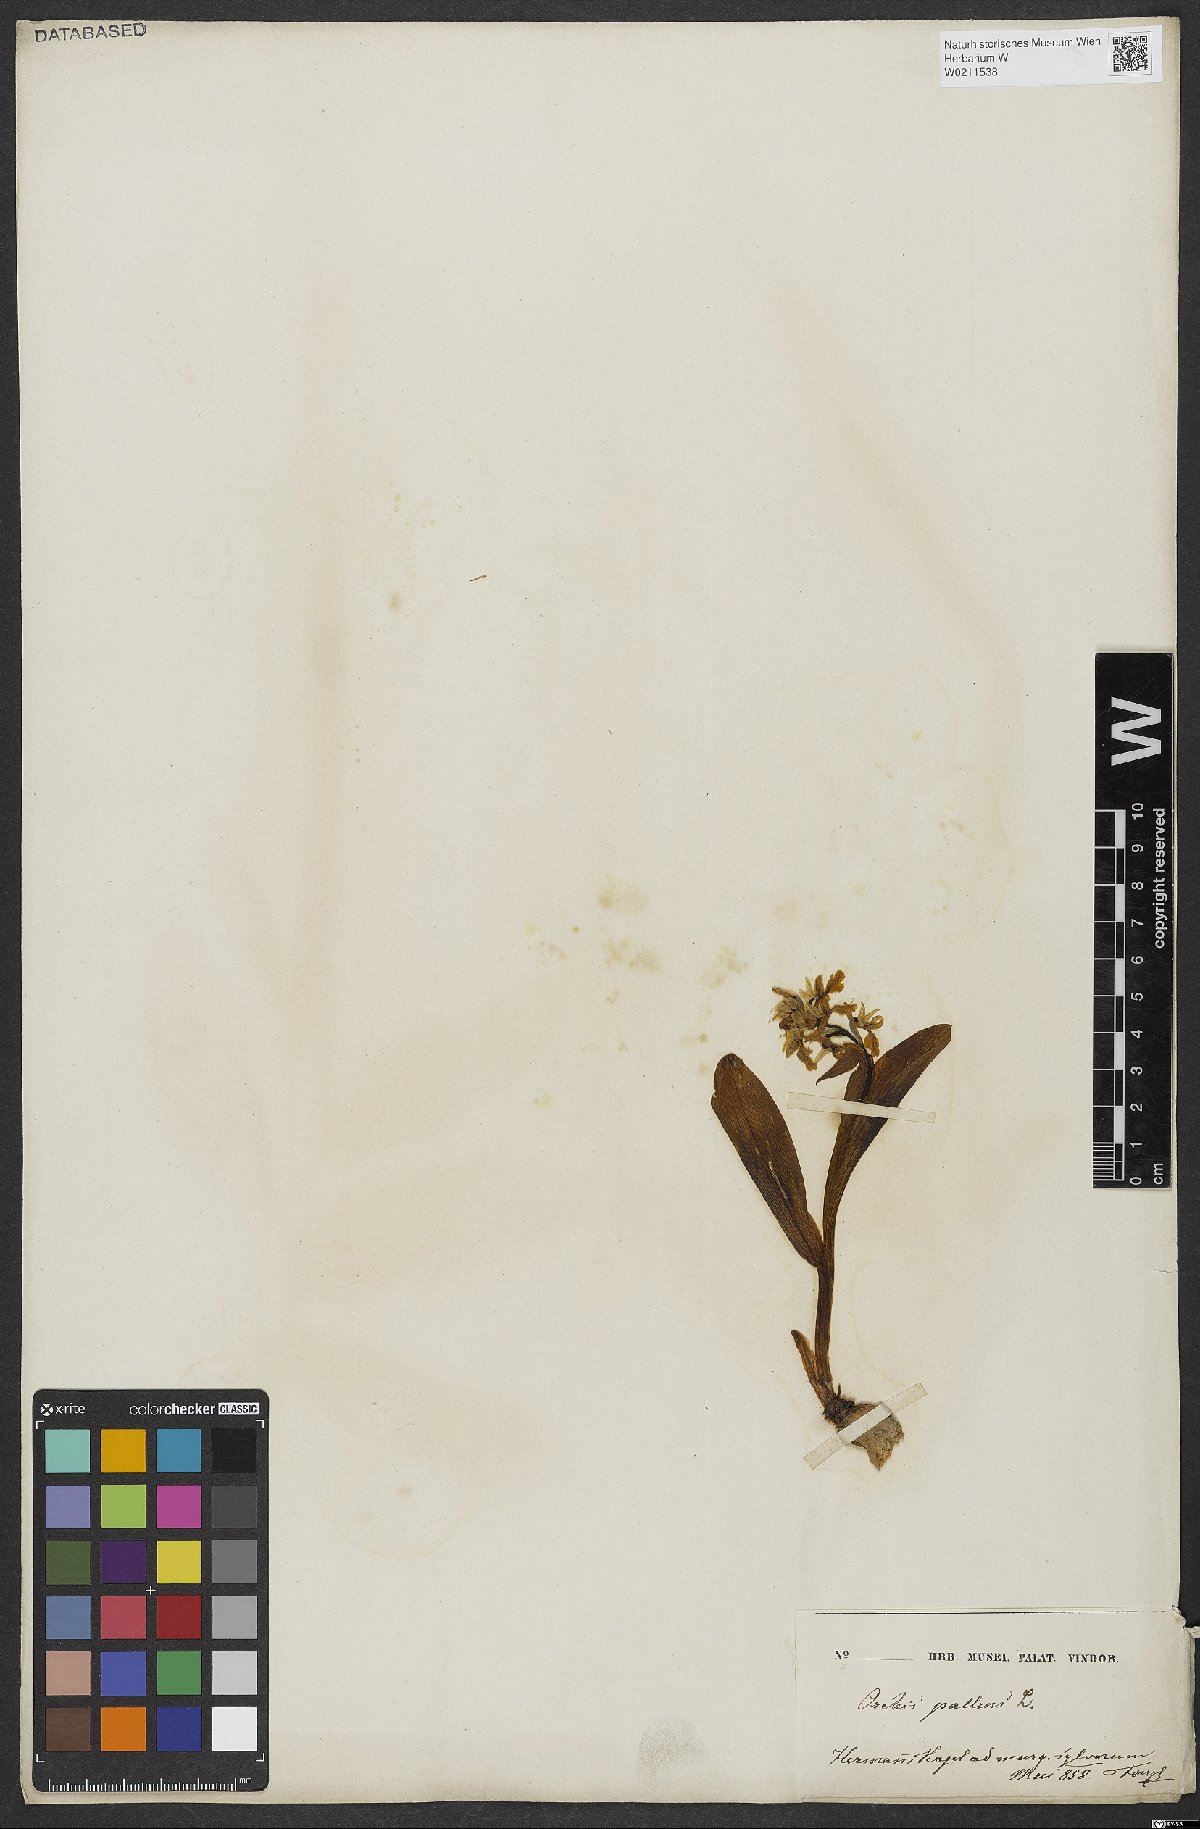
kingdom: Plantae
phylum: Tracheophyta
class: Liliopsida
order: Asparagales
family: Orchidaceae
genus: Orchis
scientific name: Orchis pallens
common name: Pale-flowered orchid
